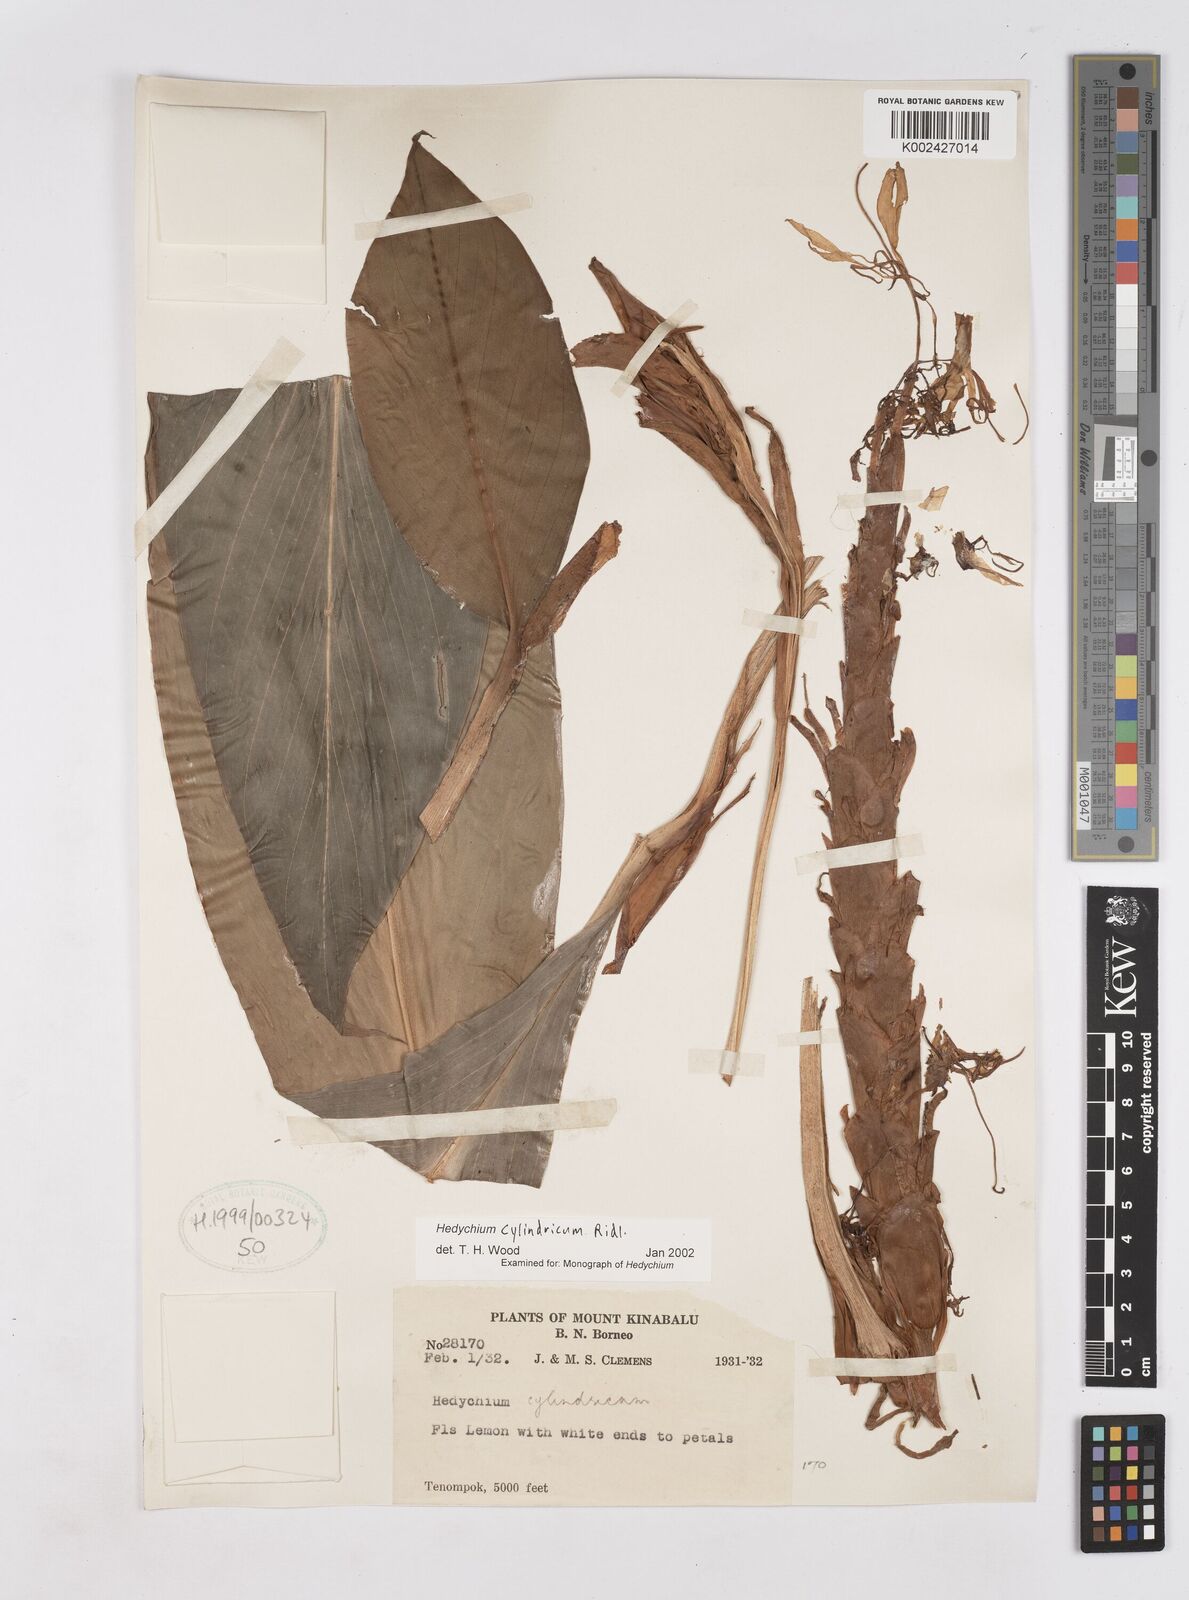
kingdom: Plantae
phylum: Tracheophyta
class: Liliopsida
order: Zingiberales
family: Zingiberaceae
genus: Hedychium
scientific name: Hedychium cylindricum
